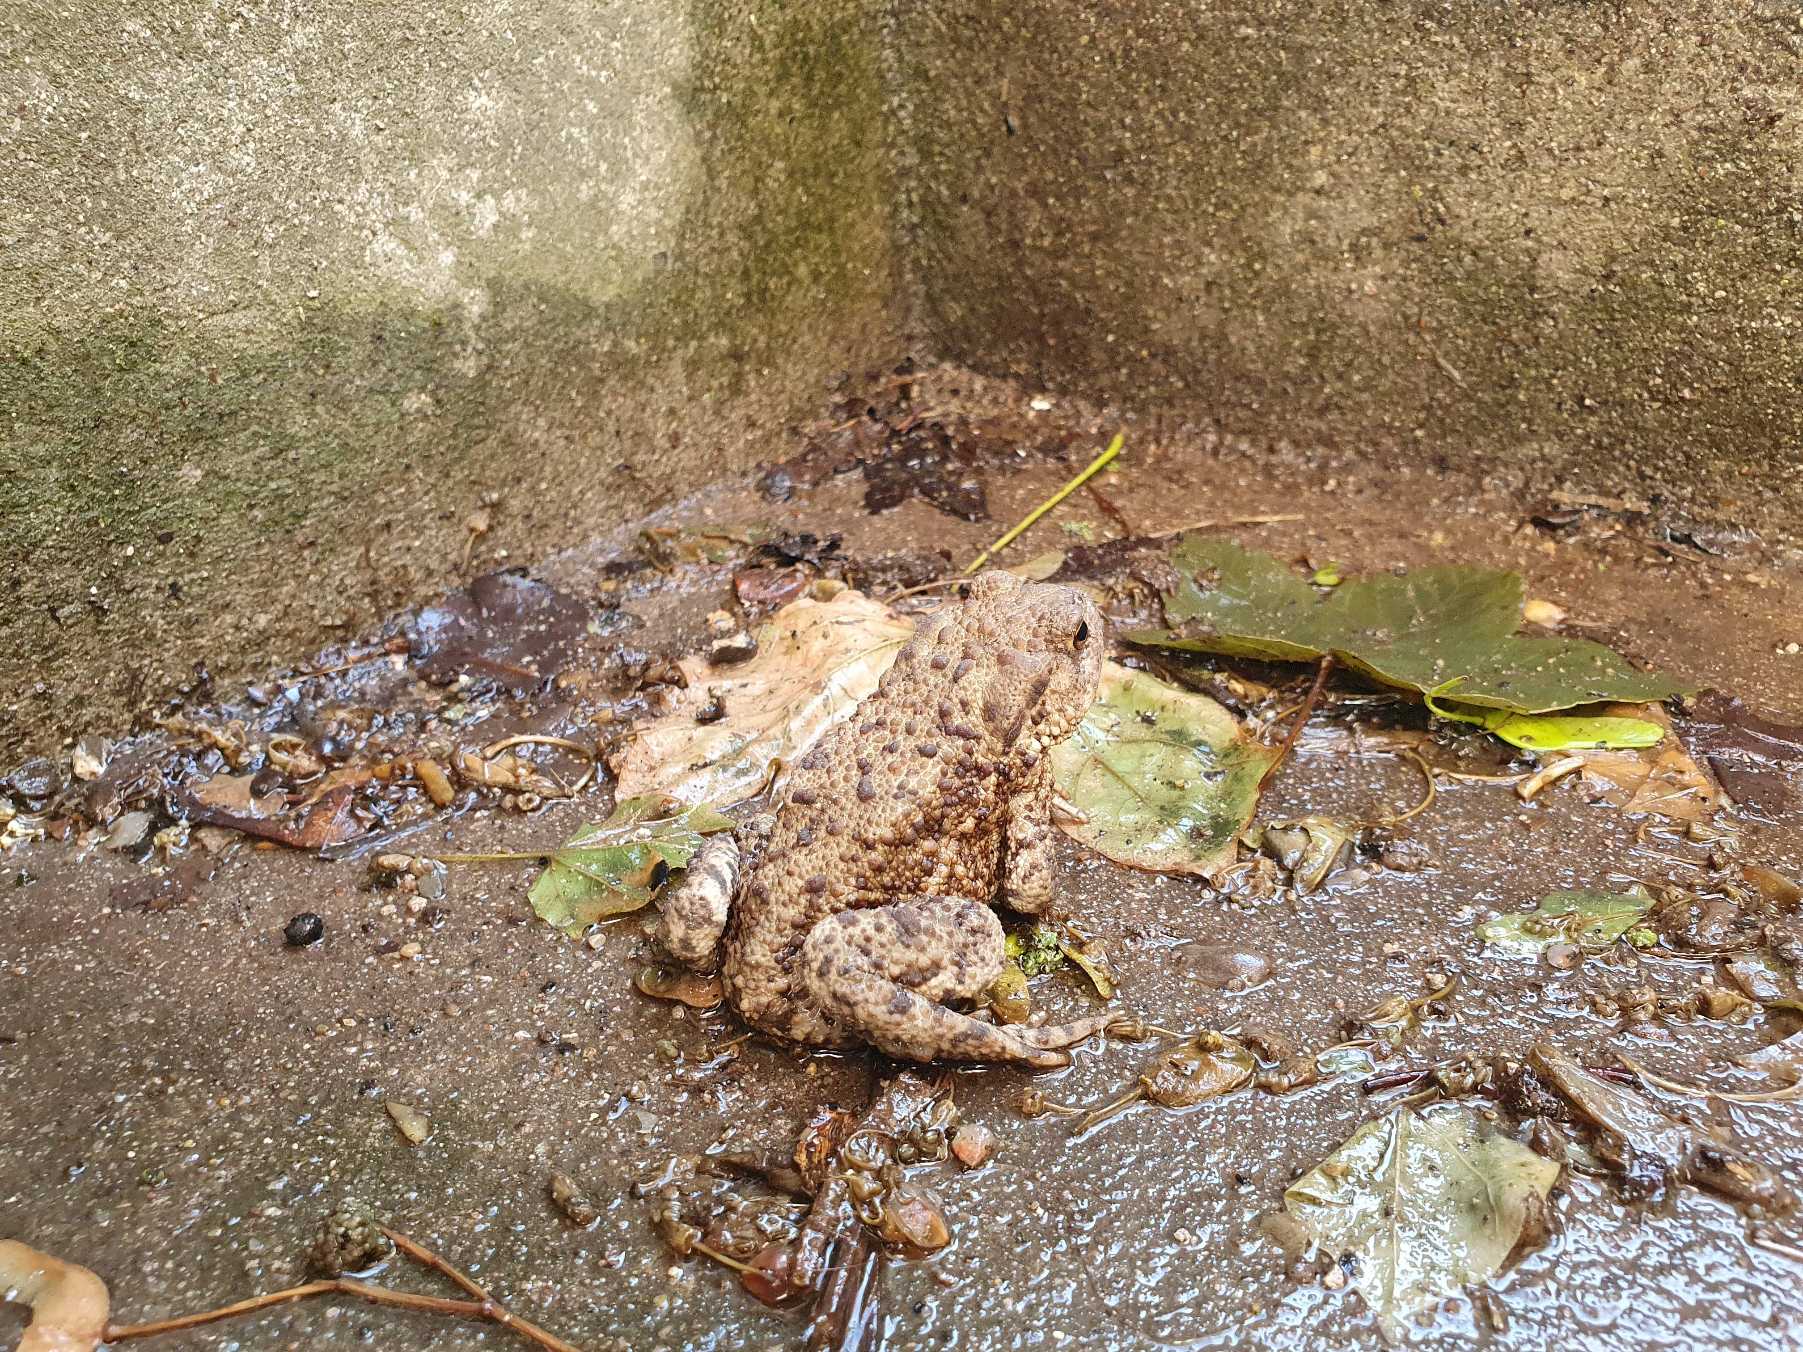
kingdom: Animalia
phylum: Chordata
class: Amphibia
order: Anura
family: Bufonidae
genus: Bufo
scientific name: Bufo bufo
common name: Skrubtudse
